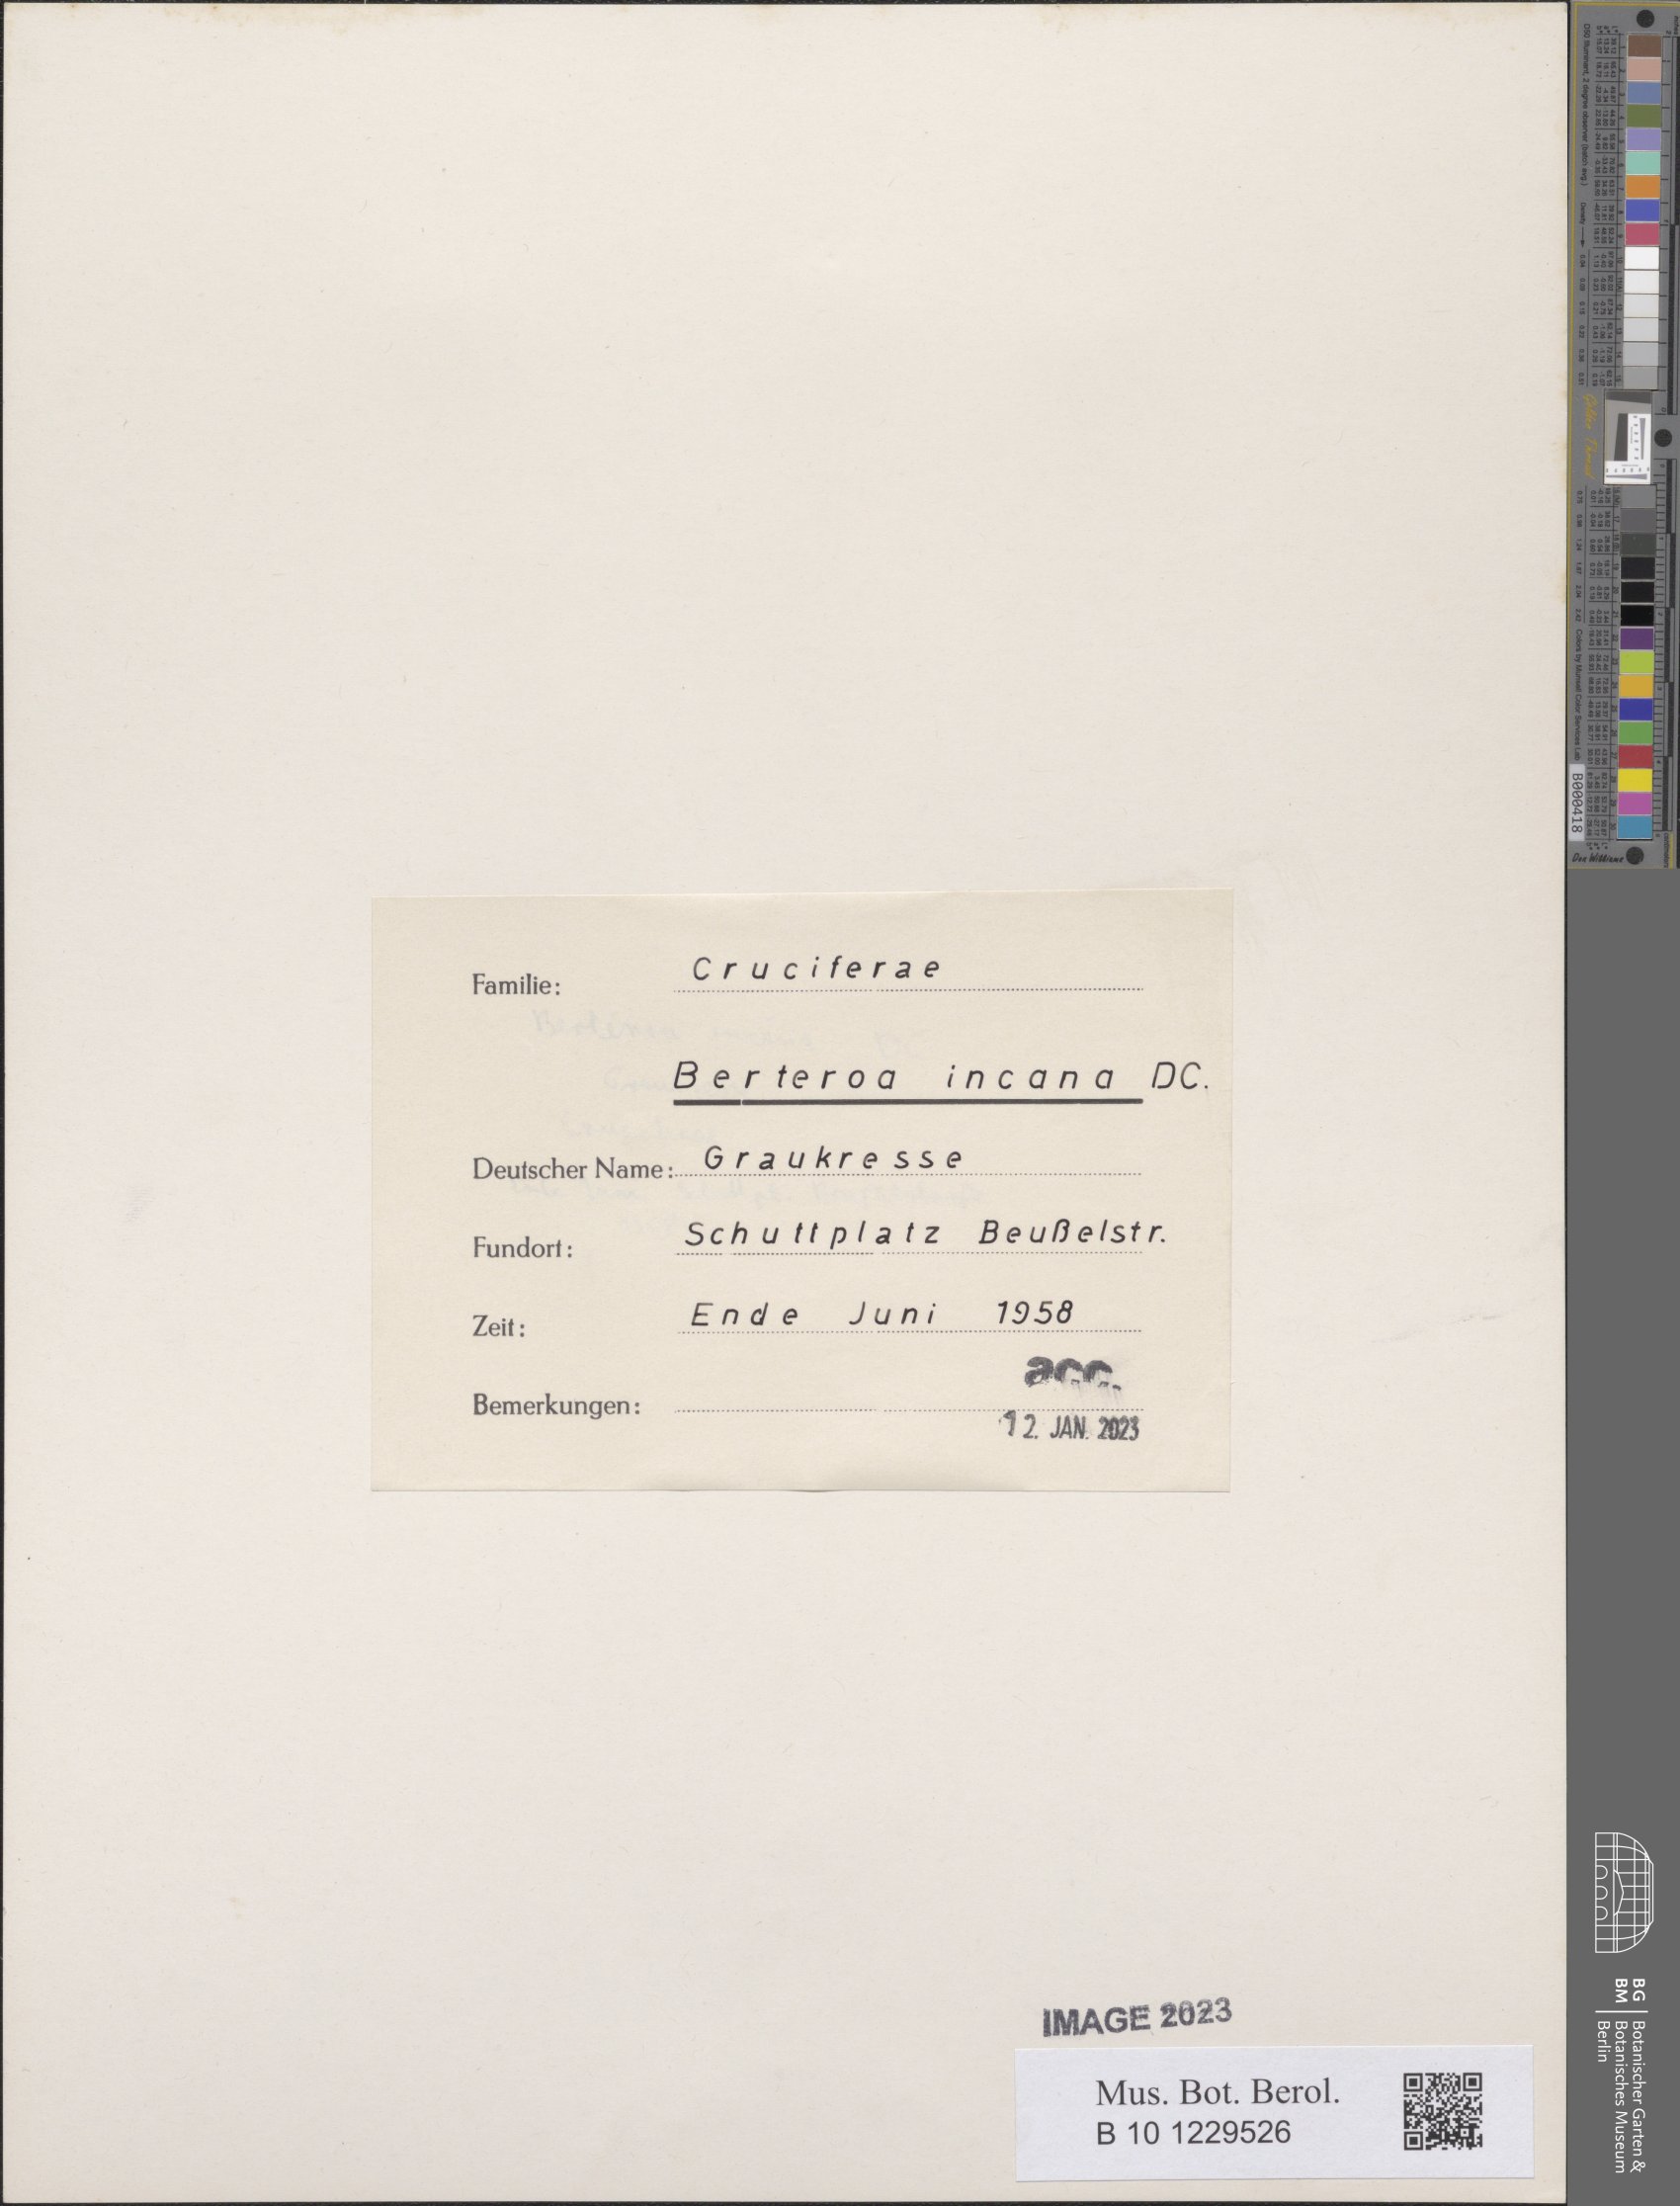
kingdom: Plantae
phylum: Tracheophyta
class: Magnoliopsida
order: Brassicales
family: Brassicaceae
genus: Berteroa
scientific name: Berteroa incana
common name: Hoary alison
